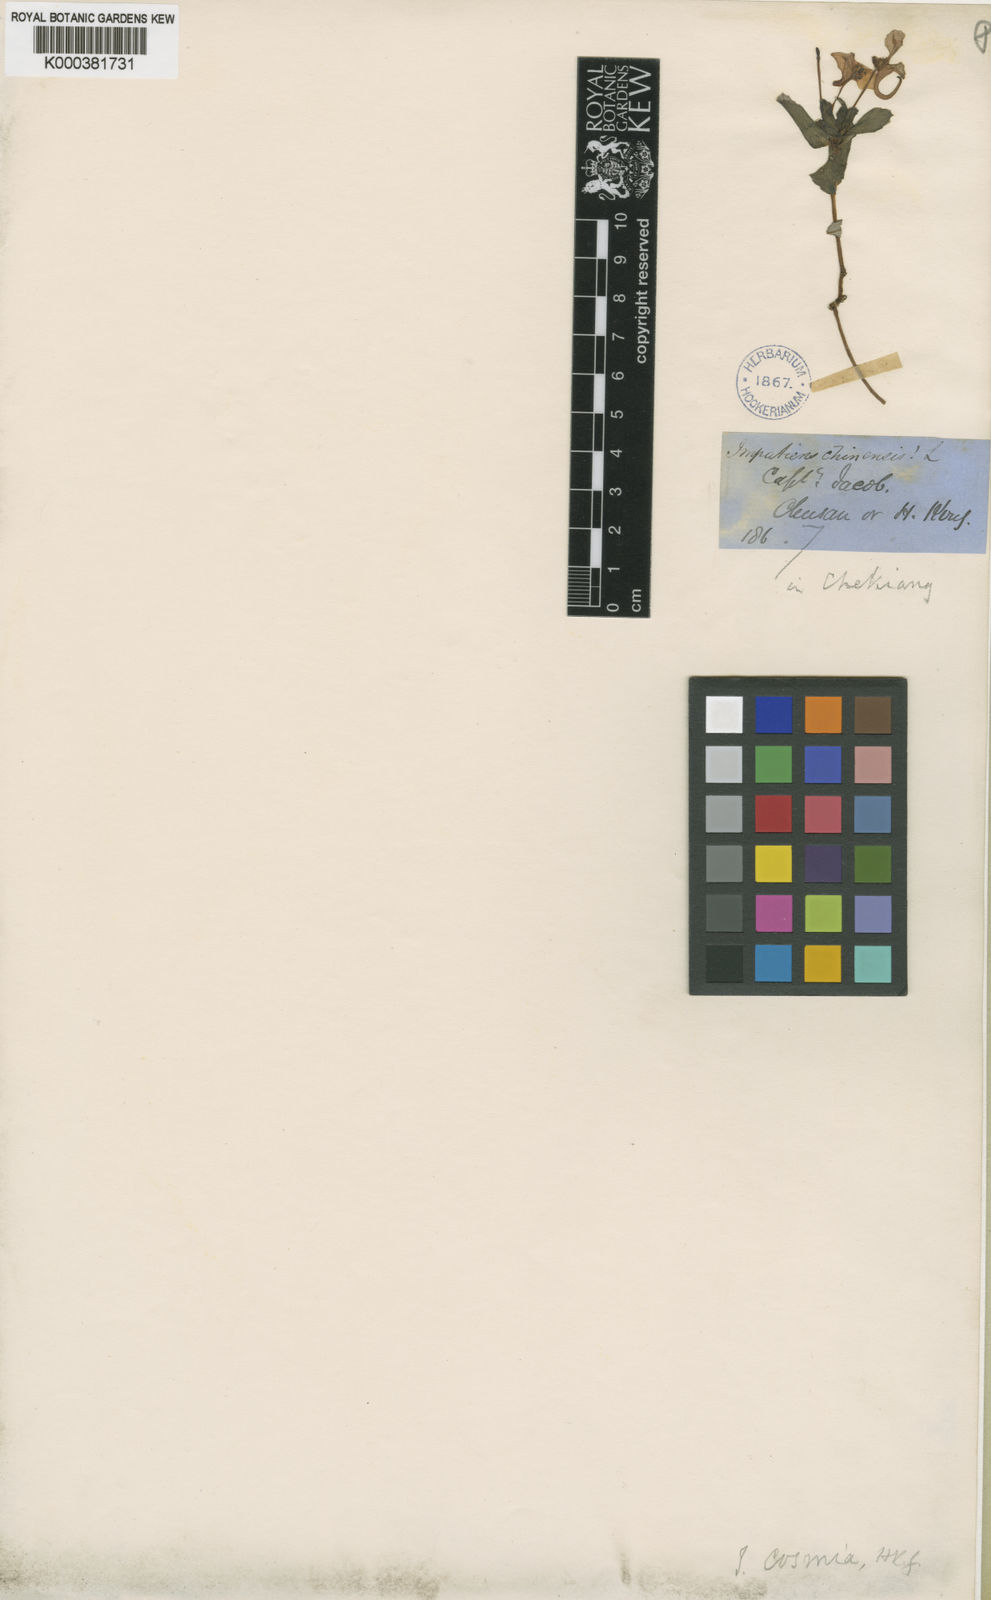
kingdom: Plantae
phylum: Tracheophyta
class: Magnoliopsida
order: Ericales
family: Balsaminaceae
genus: Impatiens
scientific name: Impatiens chinensis
